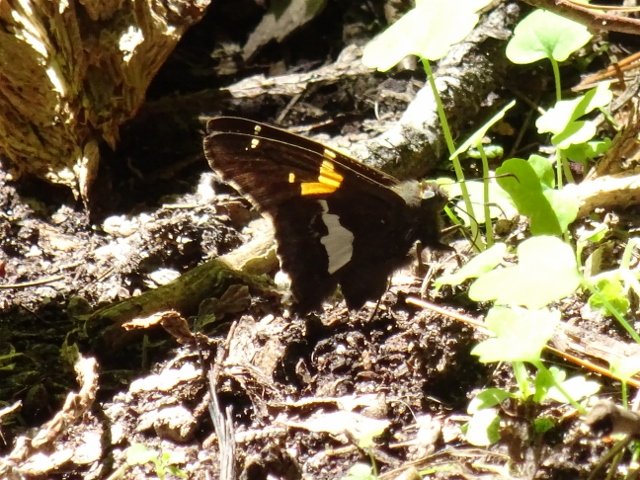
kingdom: Animalia
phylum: Arthropoda
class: Insecta
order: Lepidoptera
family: Hesperiidae
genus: Epargyreus
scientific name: Epargyreus clarus
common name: Silver-spotted Skipper
